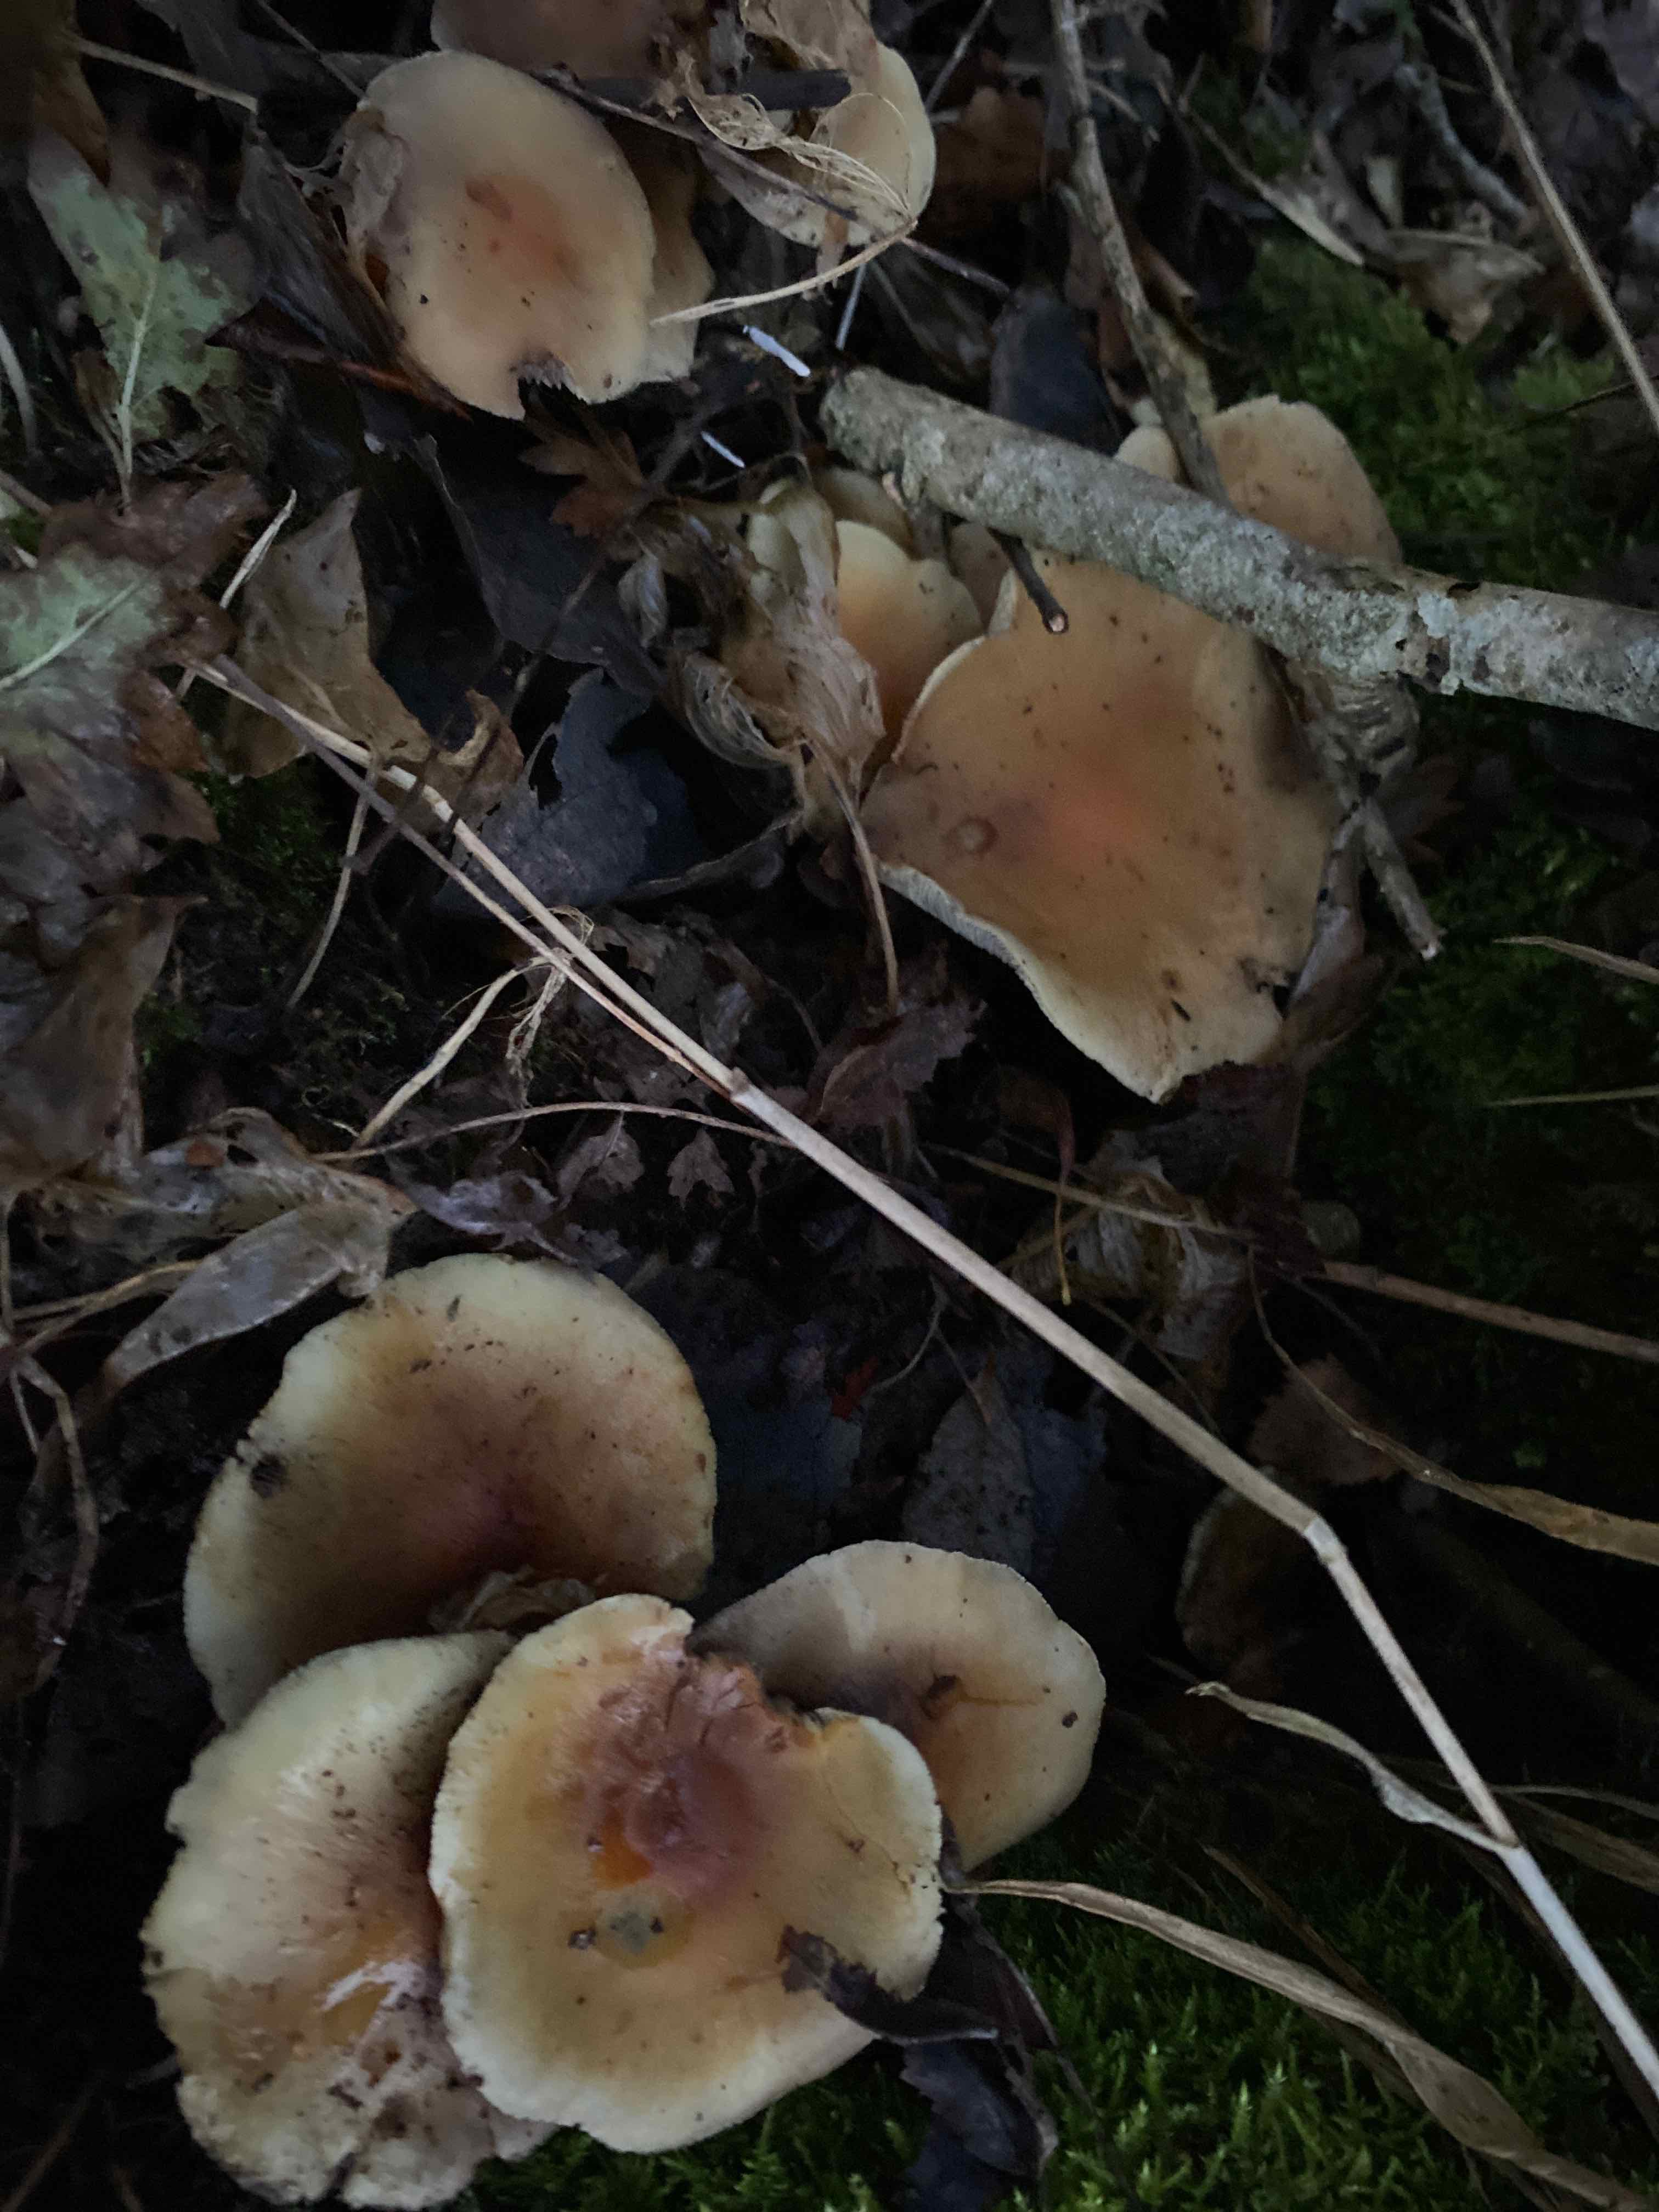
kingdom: Fungi
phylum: Basidiomycota
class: Agaricomycetes
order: Agaricales
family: Strophariaceae
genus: Hypholoma
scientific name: Hypholoma fasciculare
